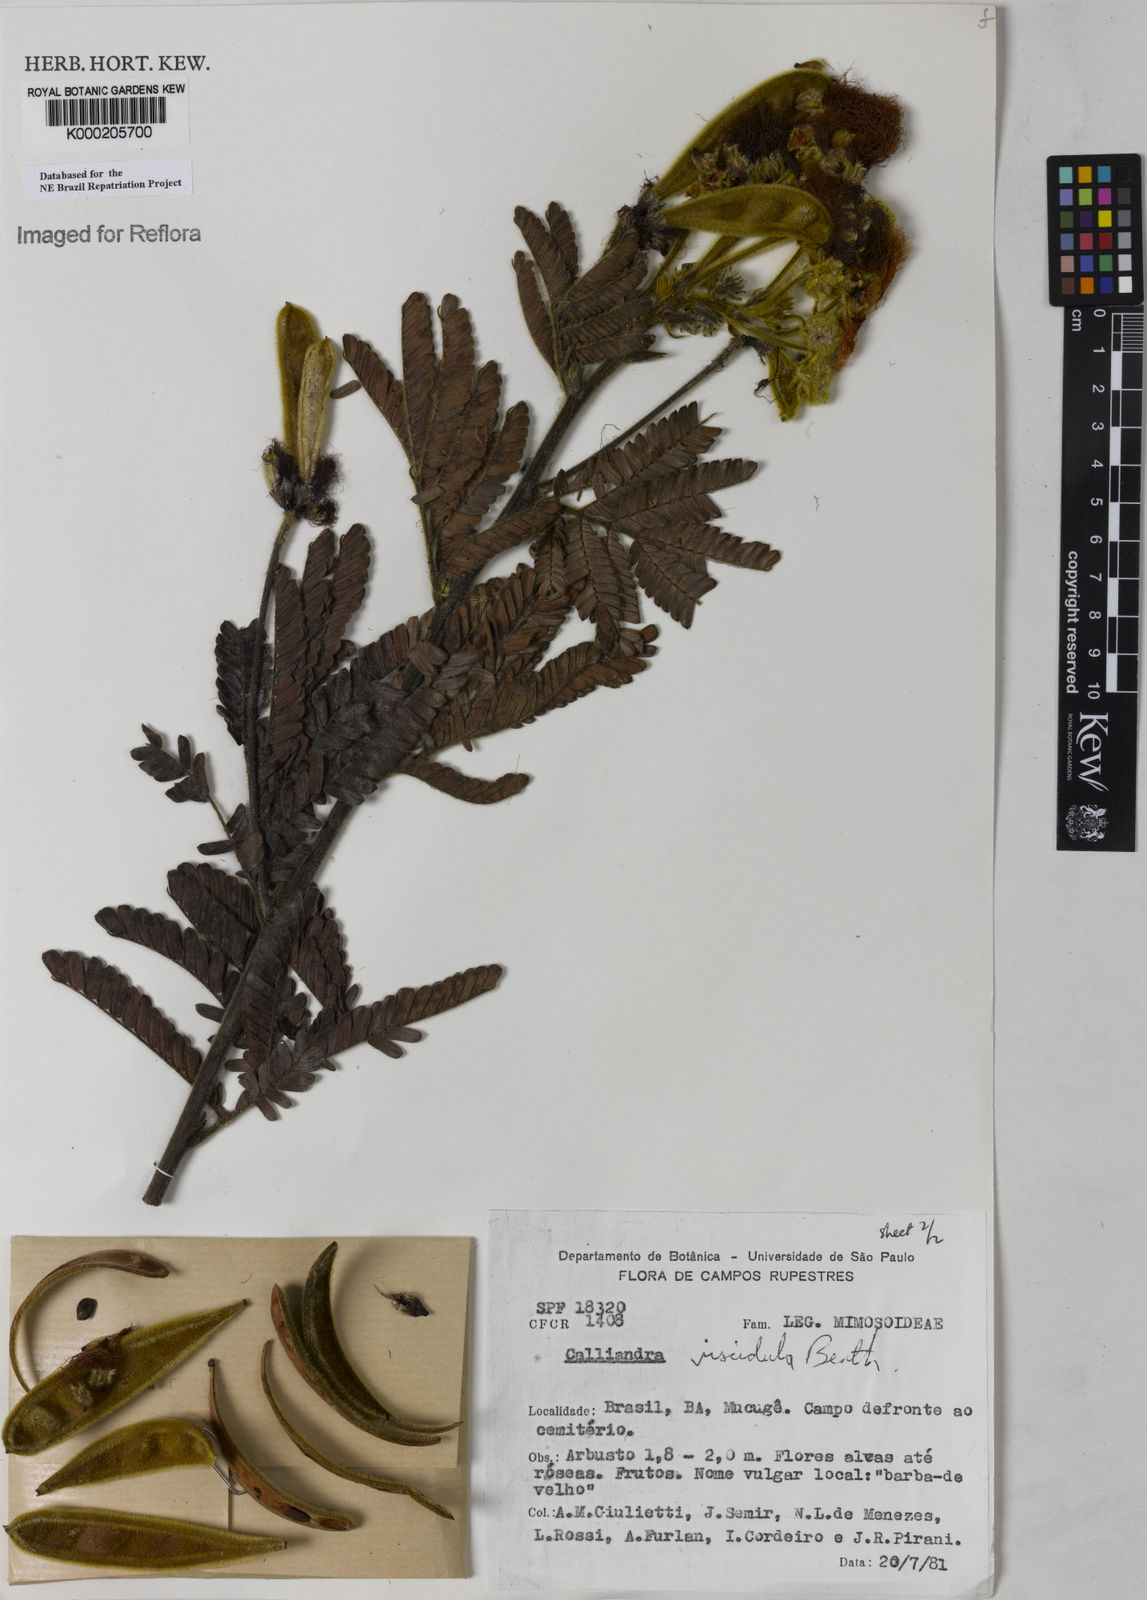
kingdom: Plantae
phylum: Tracheophyta
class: Magnoliopsida
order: Fabales
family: Fabaceae
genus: Calliandra
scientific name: Calliandra viscidula
